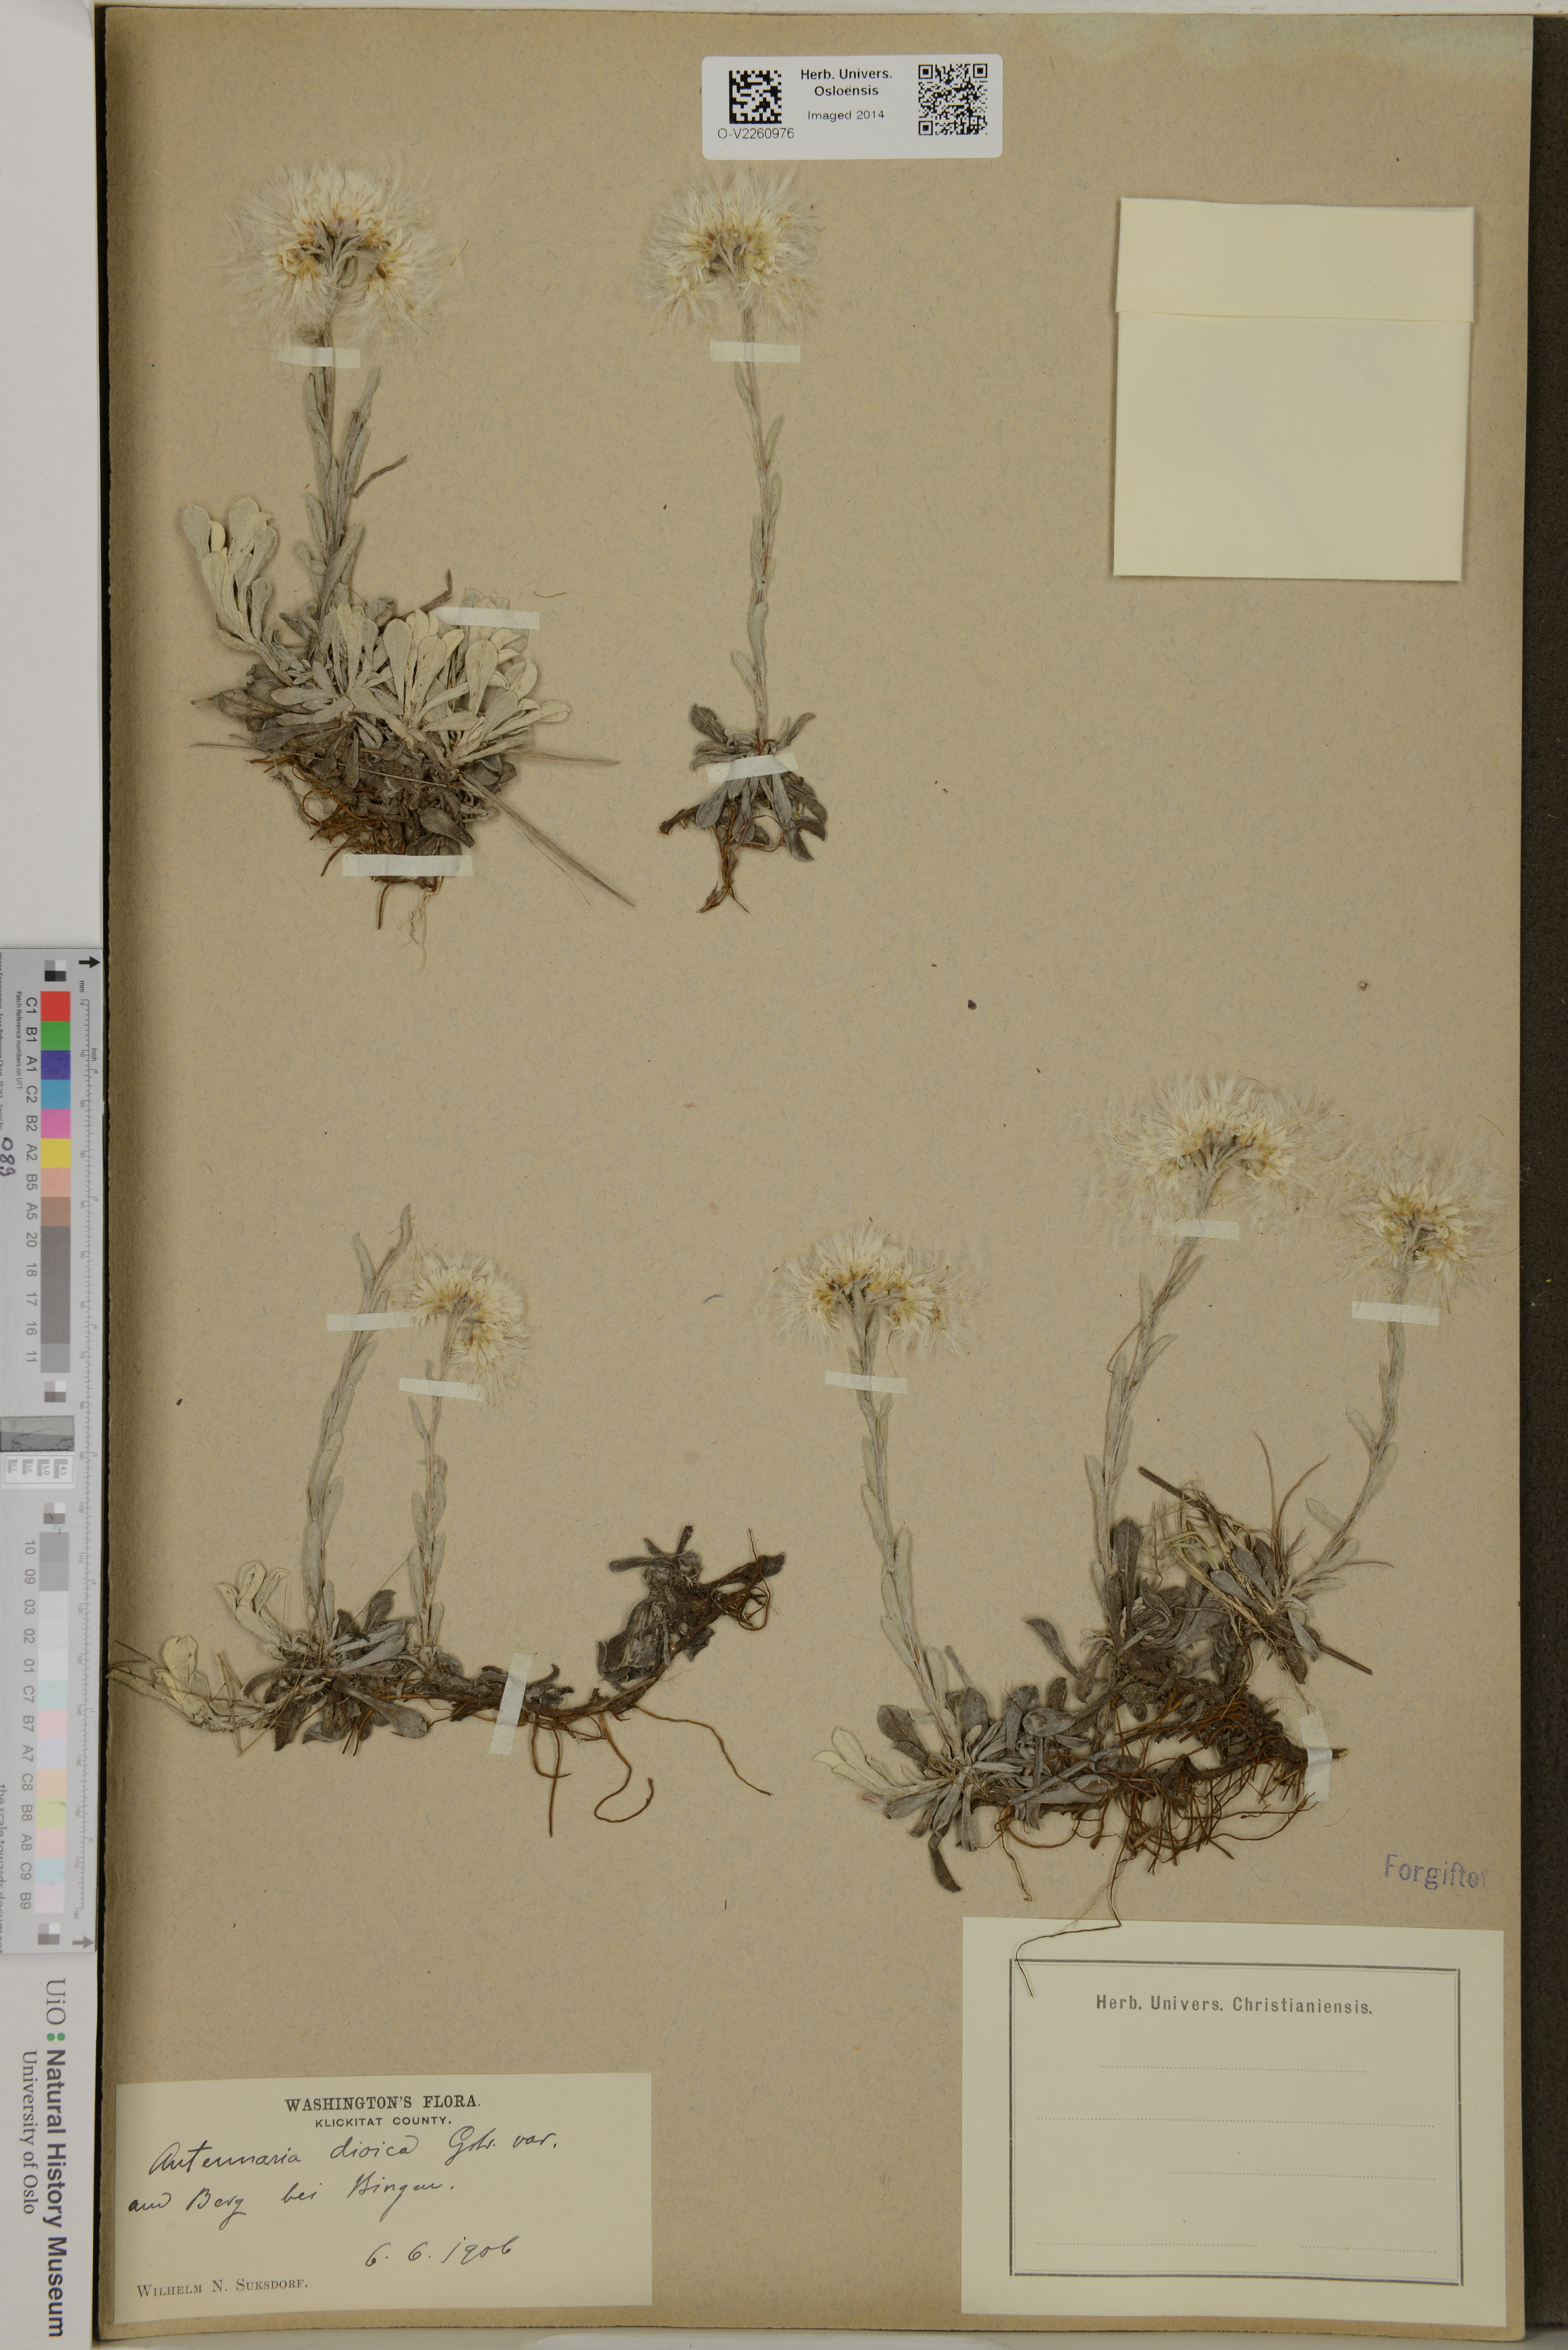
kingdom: Plantae
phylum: Tracheophyta
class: Magnoliopsida
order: Asterales
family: Asteraceae
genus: Antennaria
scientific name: Antennaria dioica
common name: Mountain everlasting
